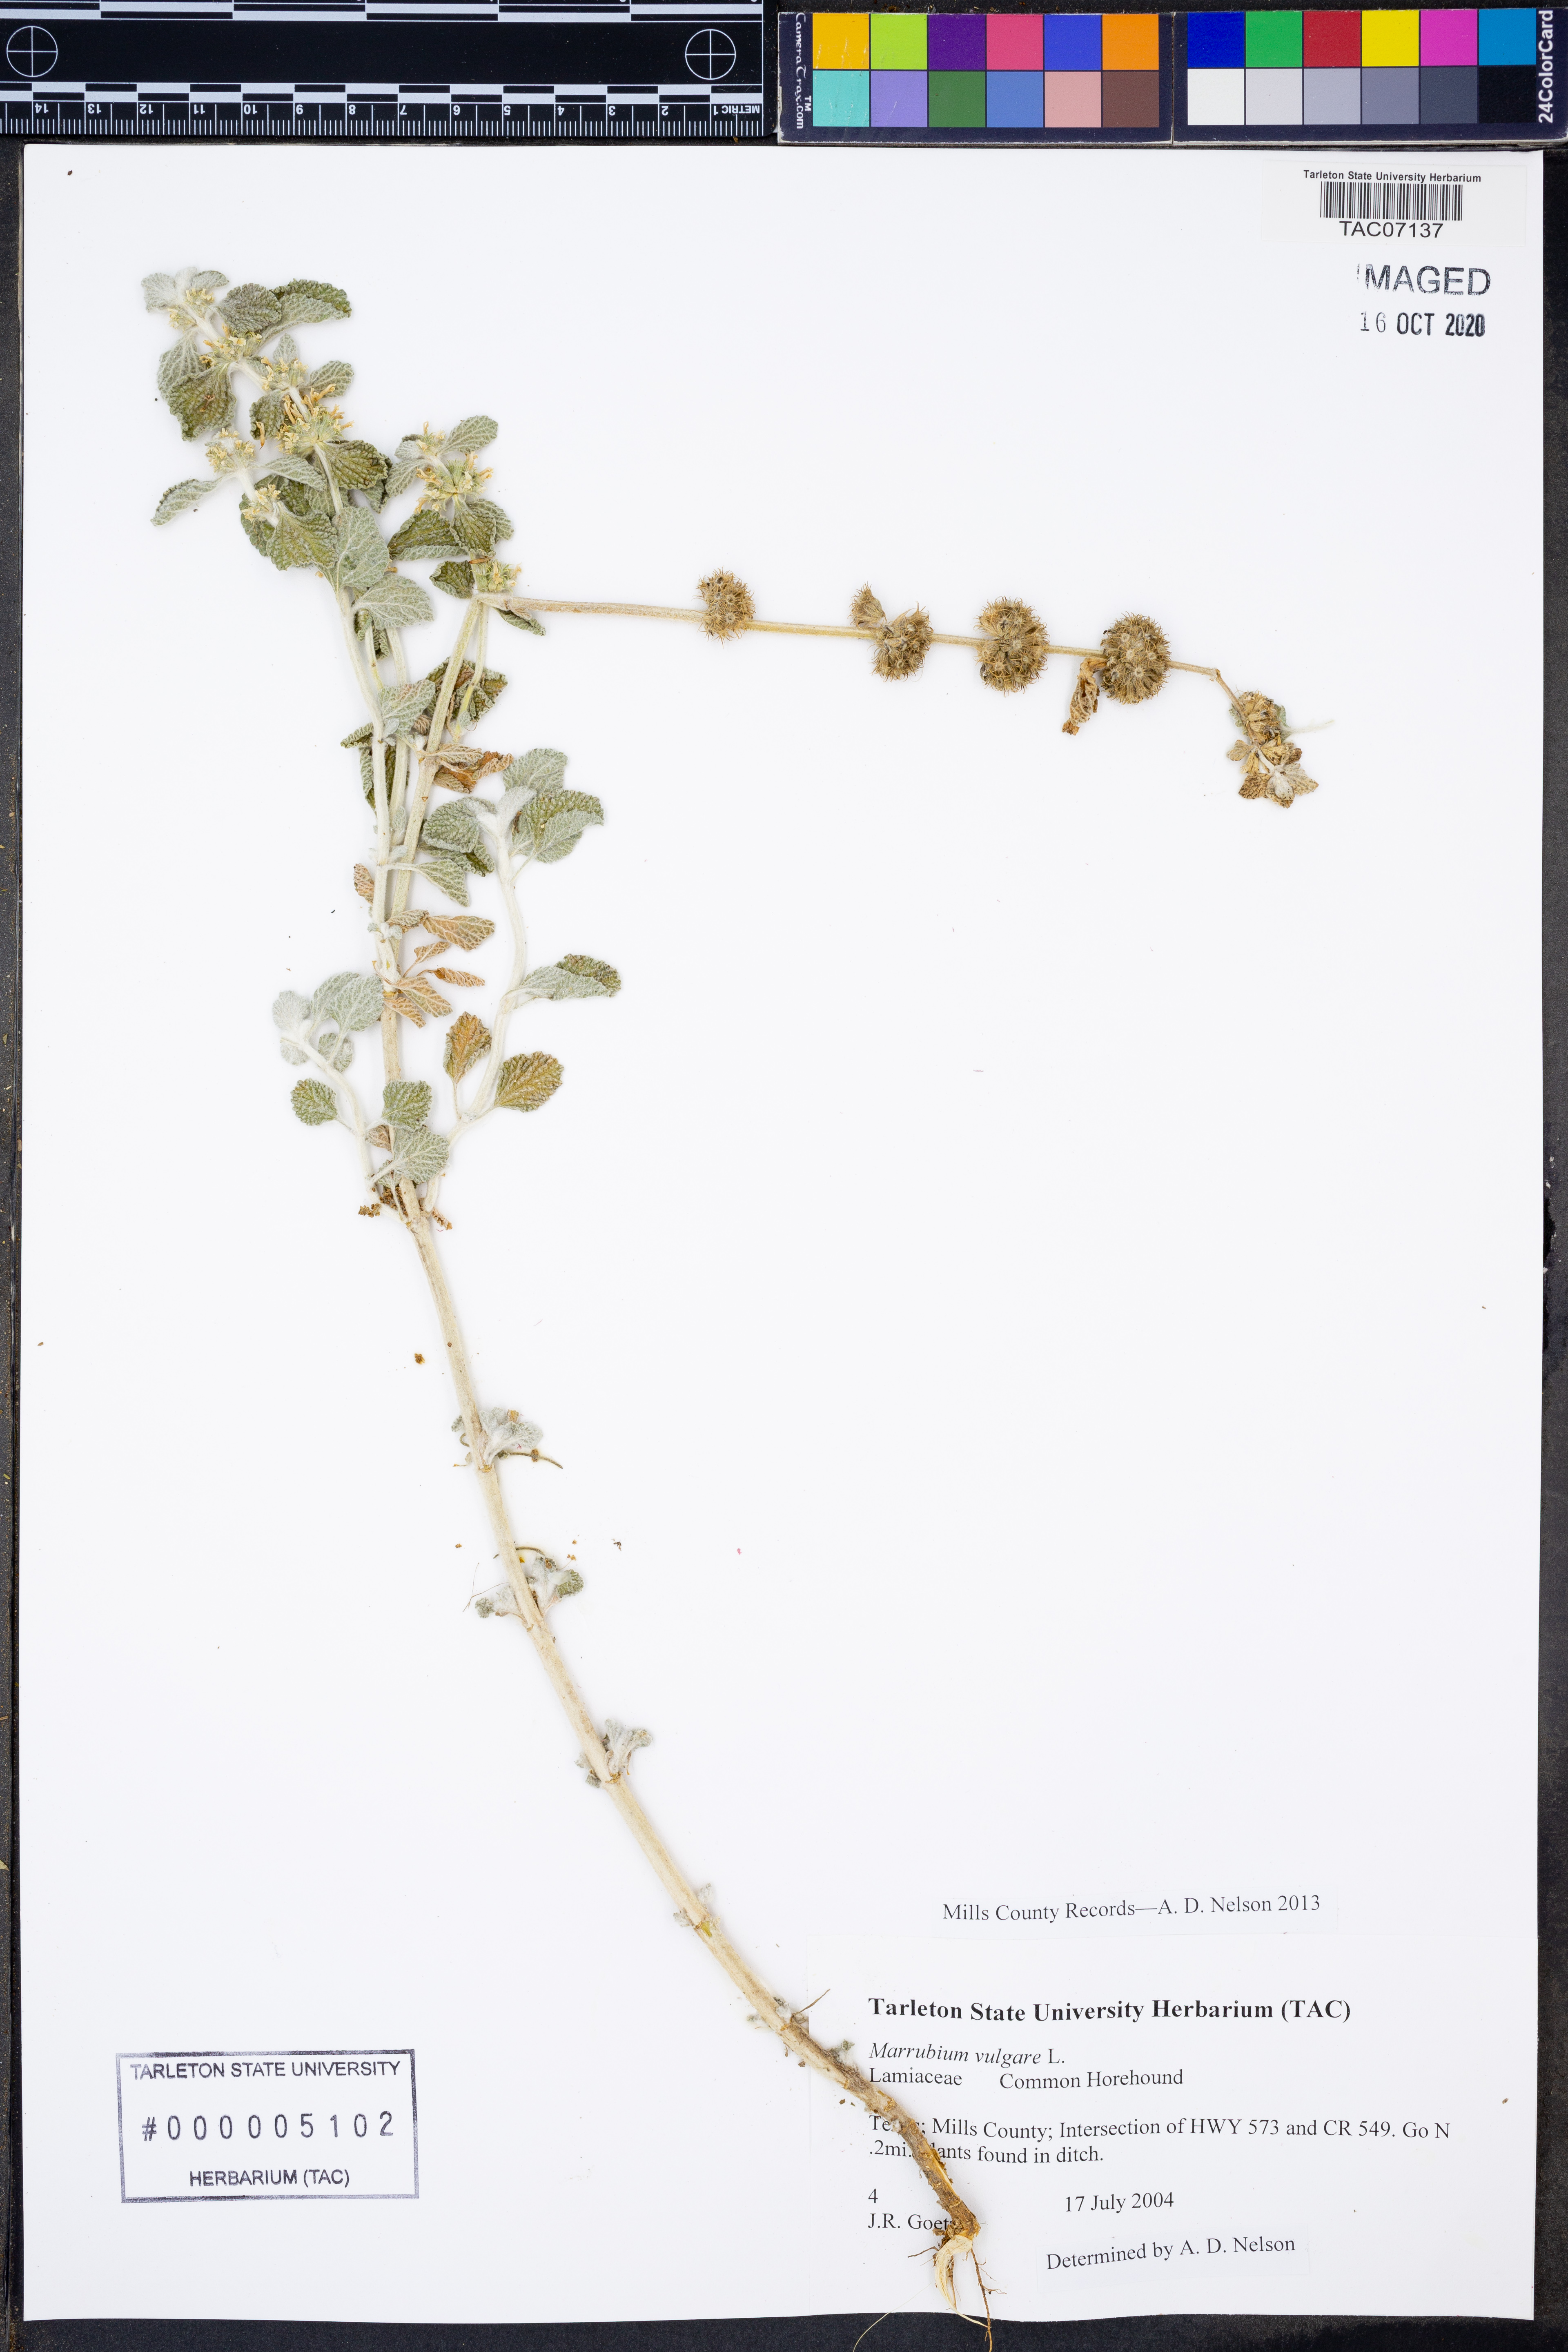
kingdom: Plantae
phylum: Tracheophyta
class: Magnoliopsida
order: Lamiales
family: Lamiaceae
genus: Marrubium
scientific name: Marrubium vulgare
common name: Horehound
